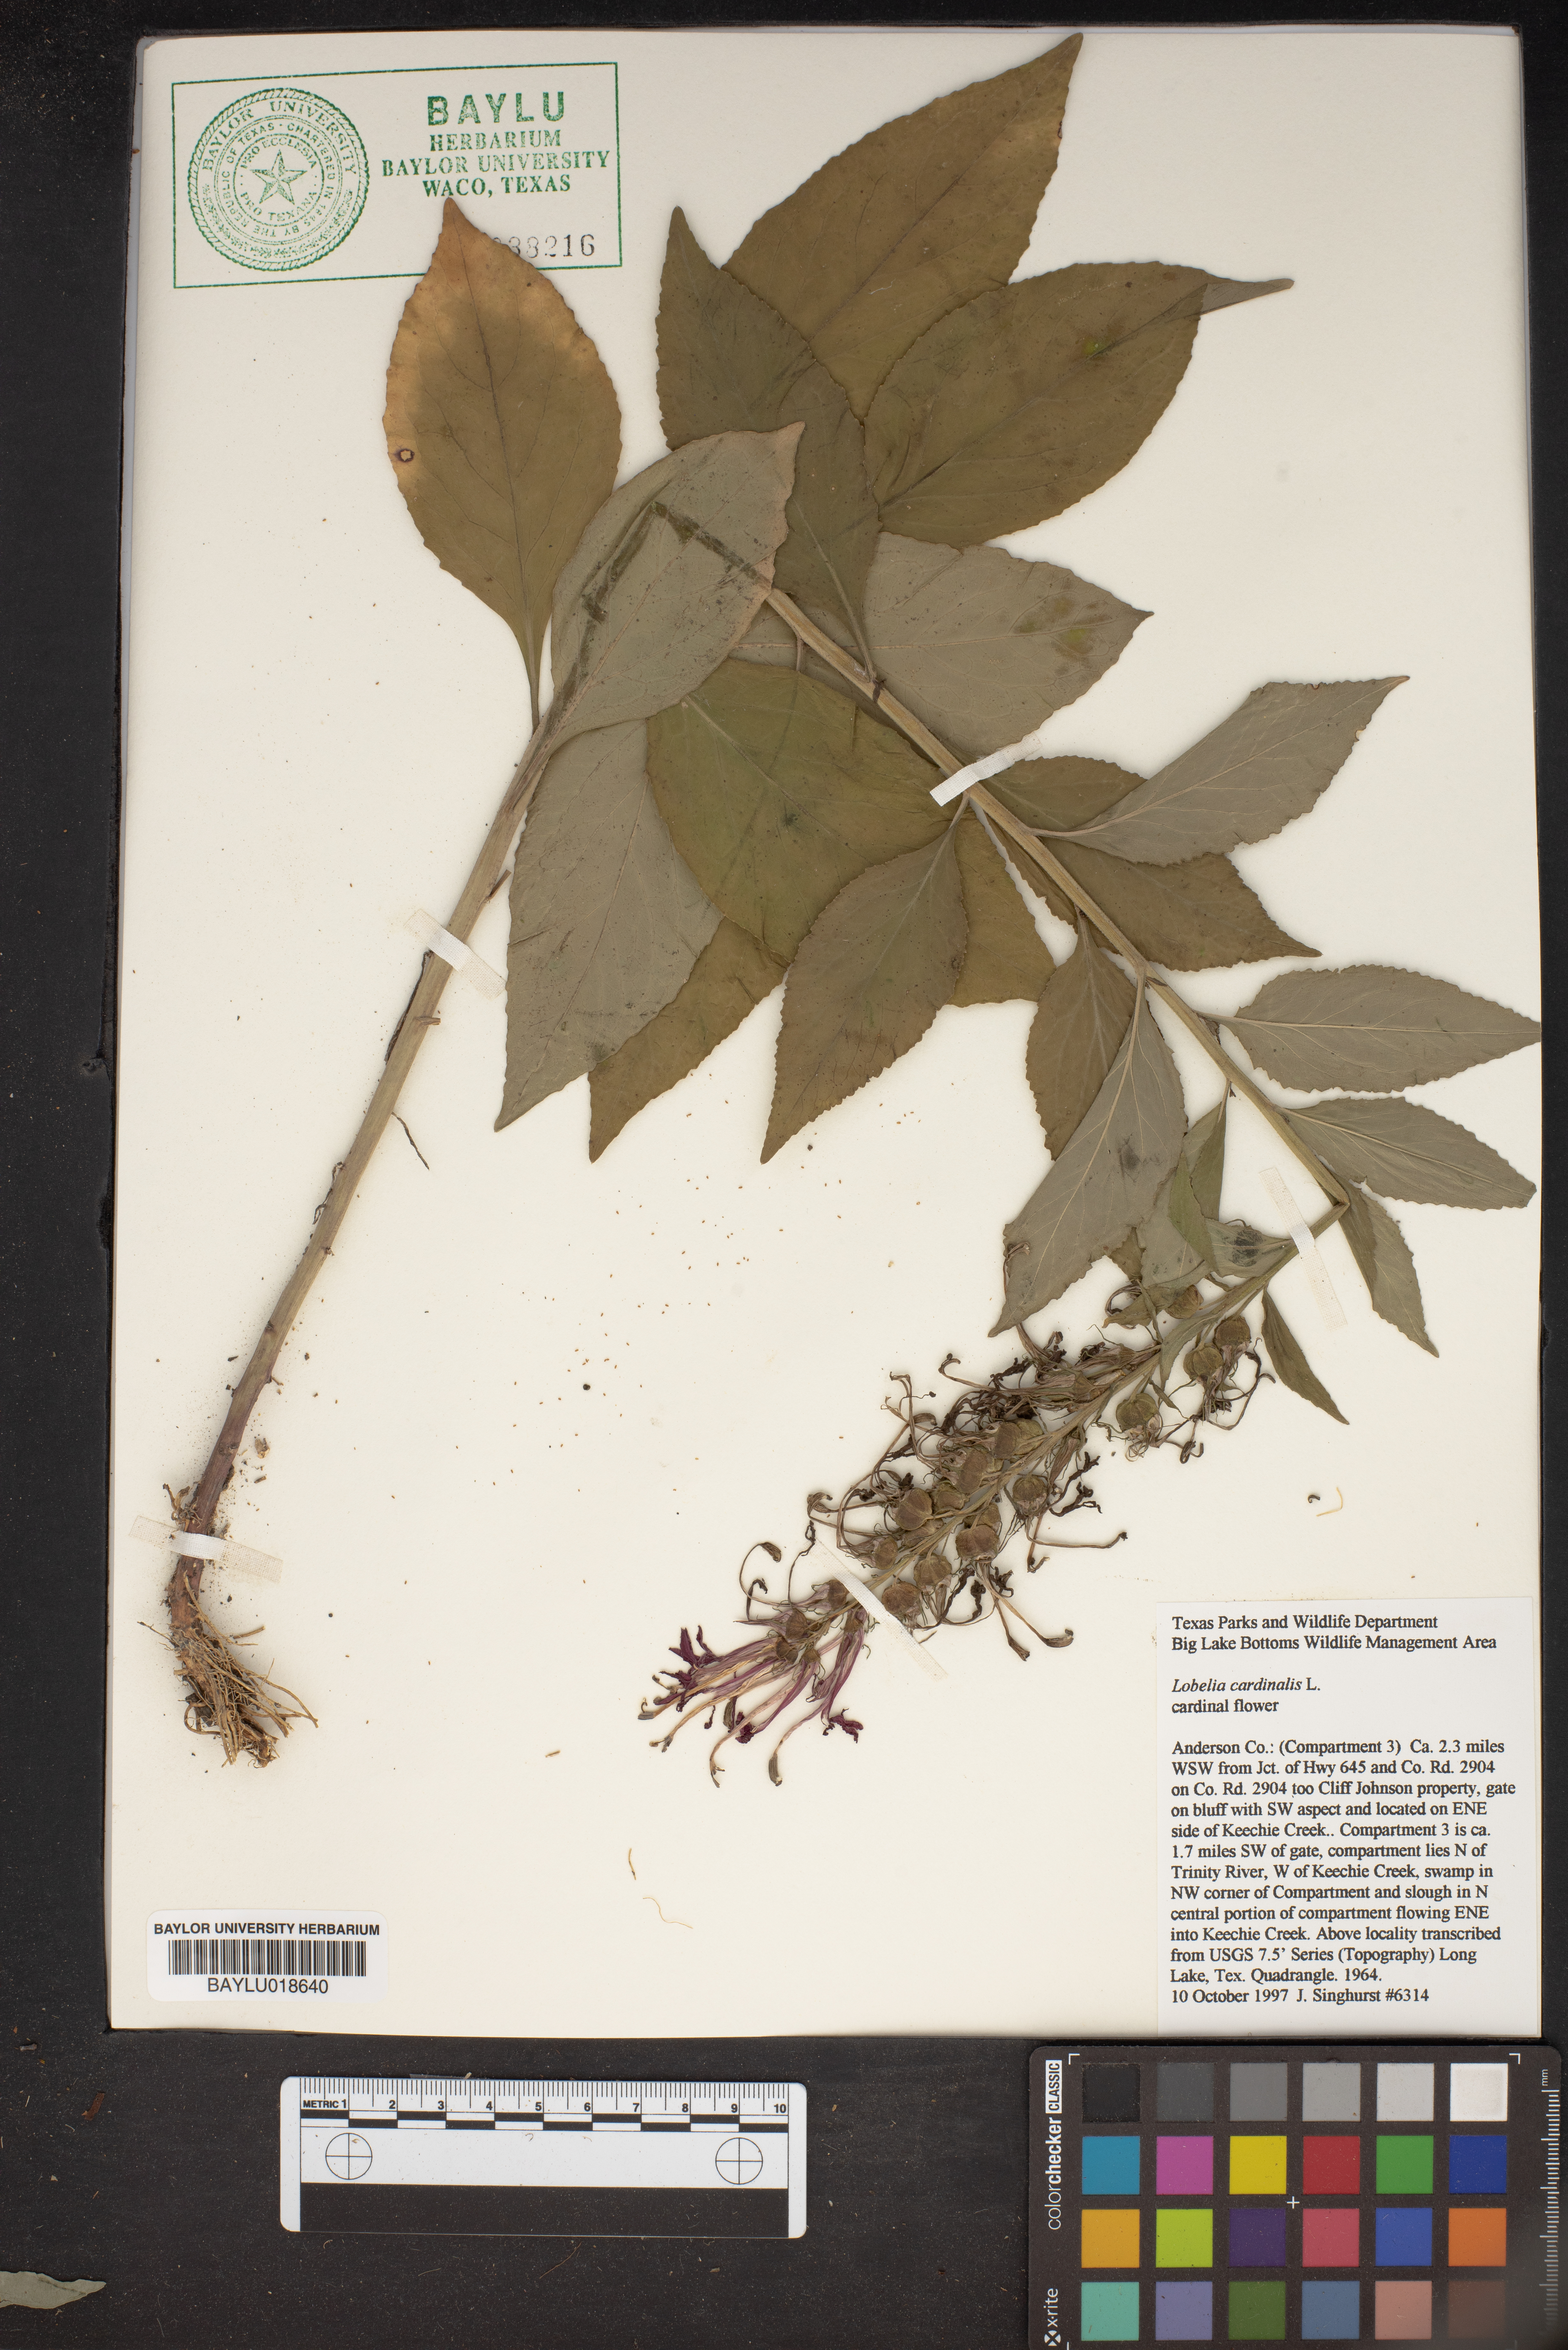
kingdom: Plantae
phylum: Tracheophyta
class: Magnoliopsida
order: Asterales
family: Campanulaceae
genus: Lobelia
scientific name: Lobelia cardinalis
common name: Cardinal flower
